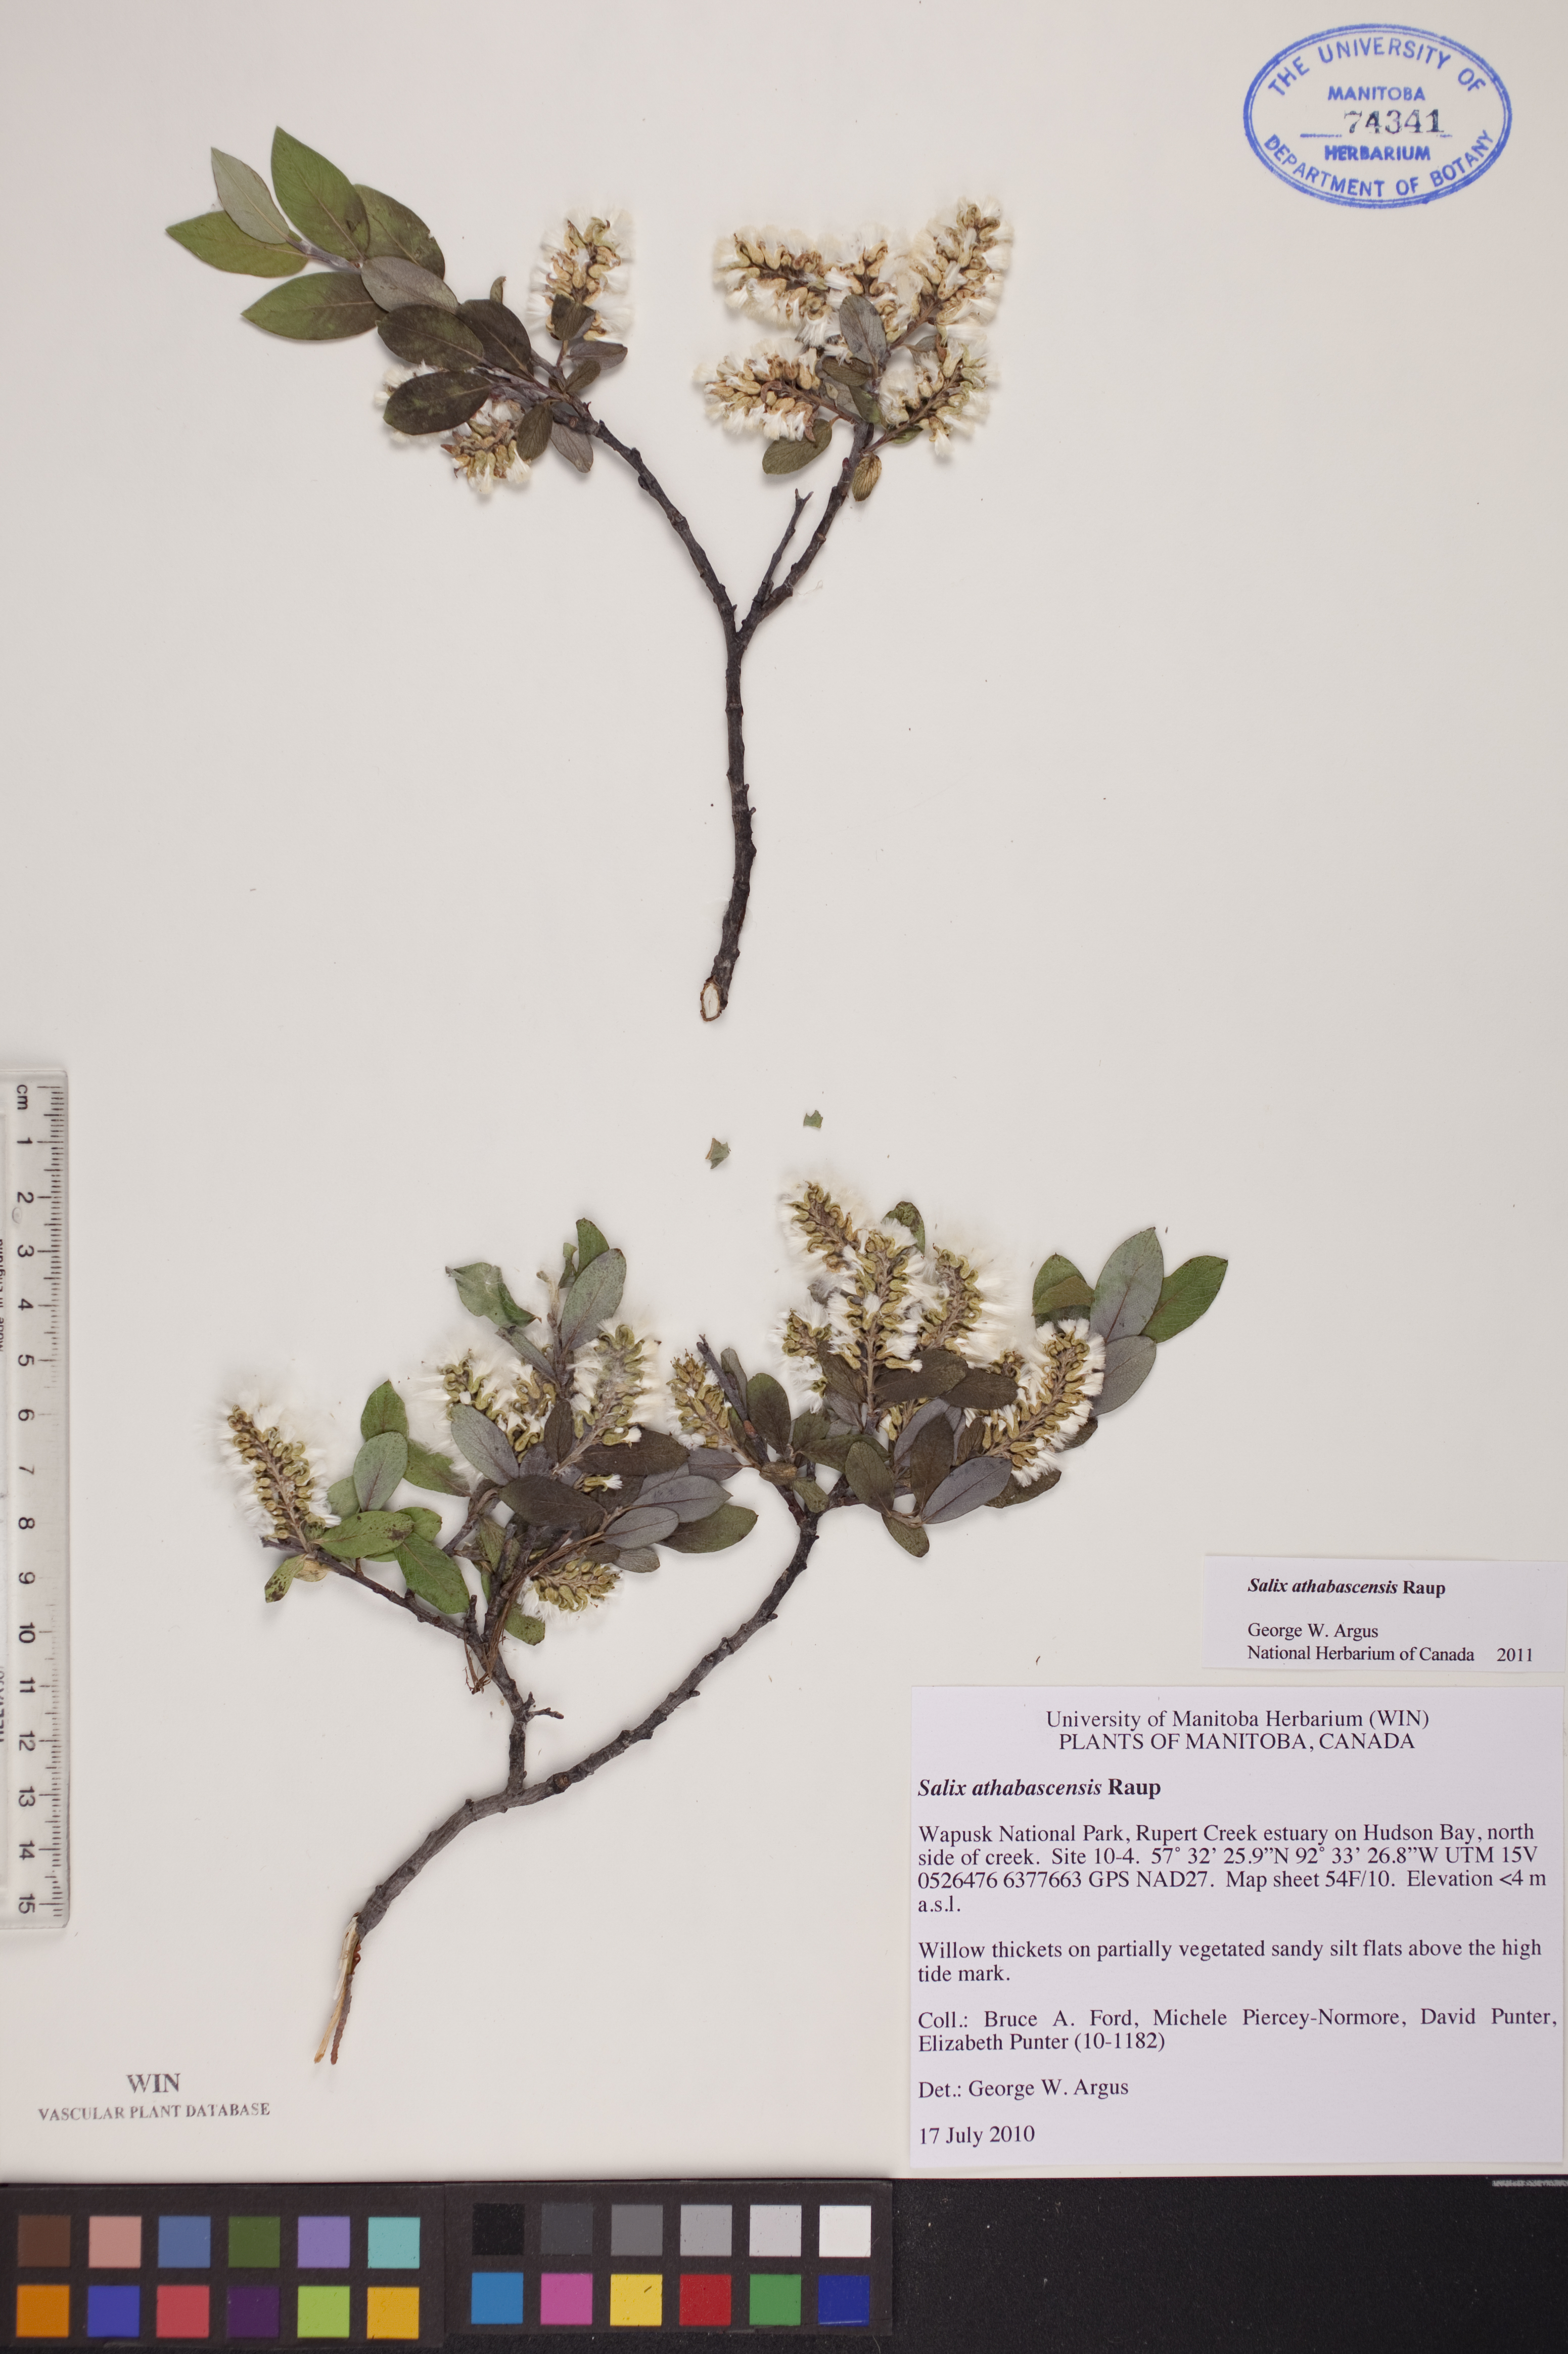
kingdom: Plantae
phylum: Tracheophyta
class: Magnoliopsida
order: Malpighiales
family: Salicaceae
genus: Salix
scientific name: Salix athabascensis
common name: Athabasca willow
